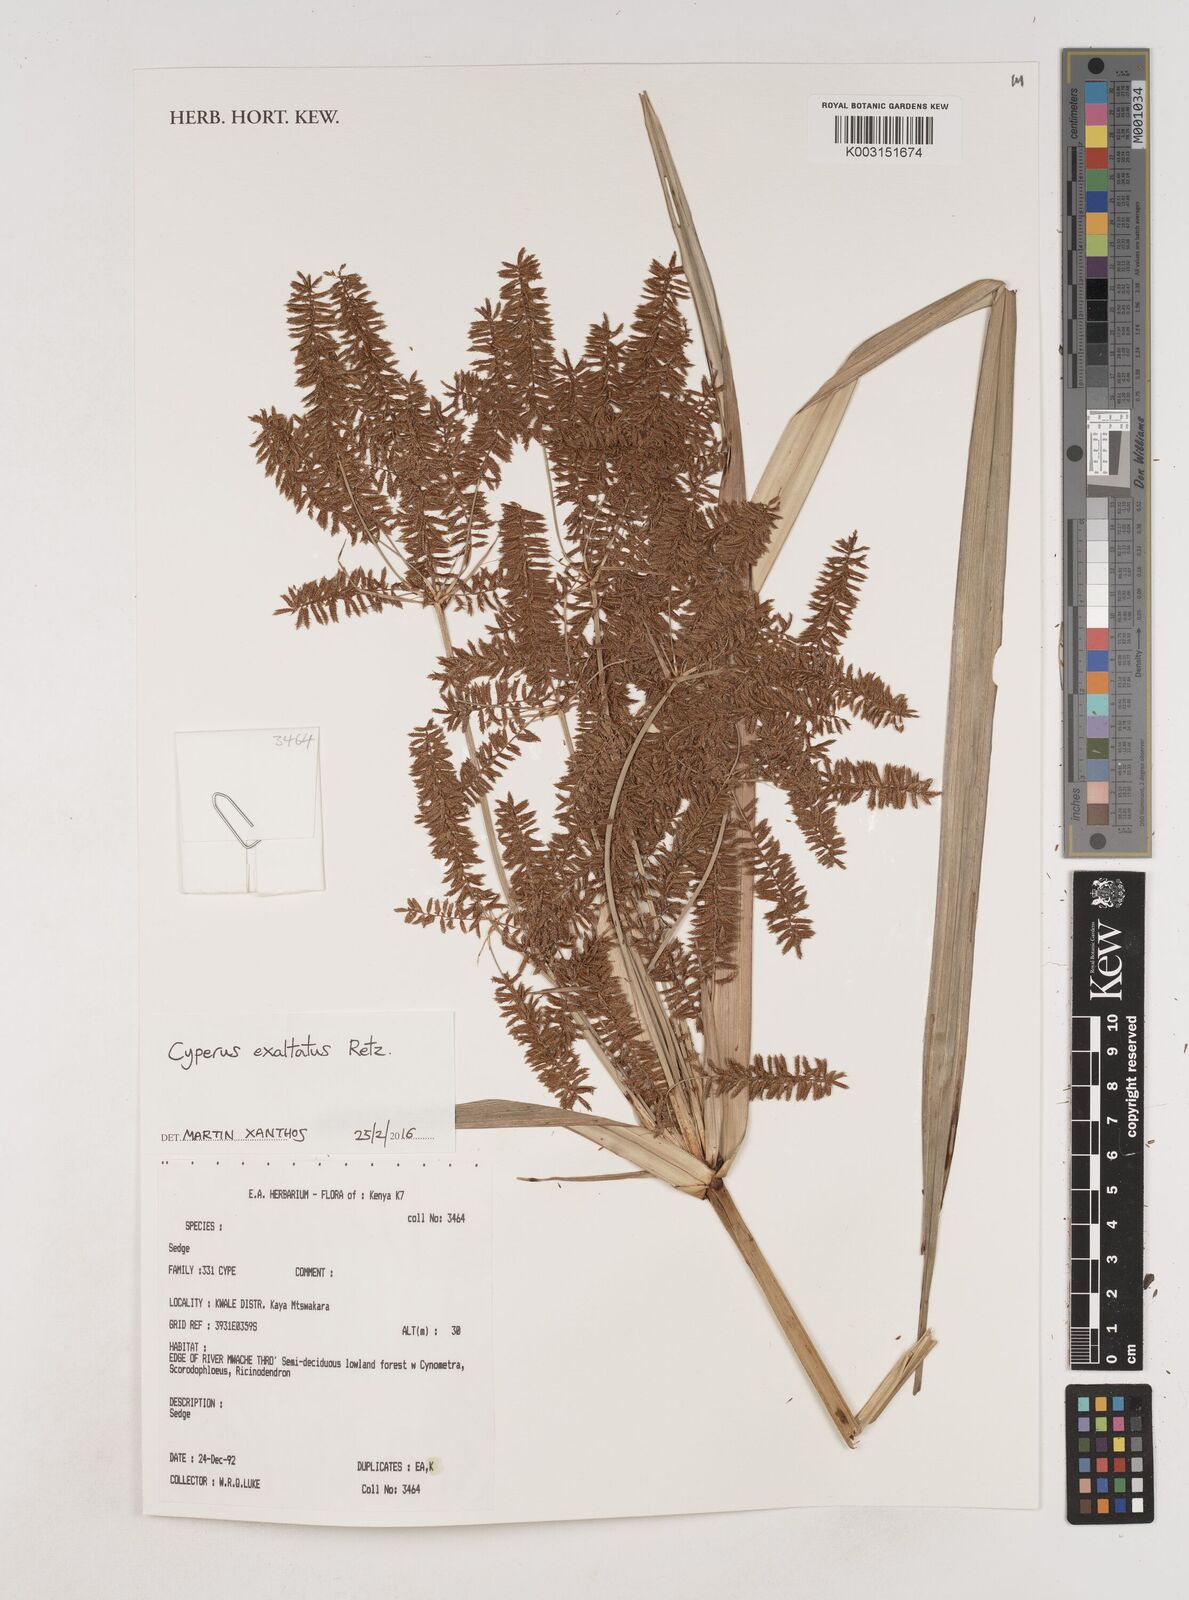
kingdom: Plantae
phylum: Tracheophyta
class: Liliopsida
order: Poales
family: Cyperaceae
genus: Cyperus
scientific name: Cyperus exaltatus
